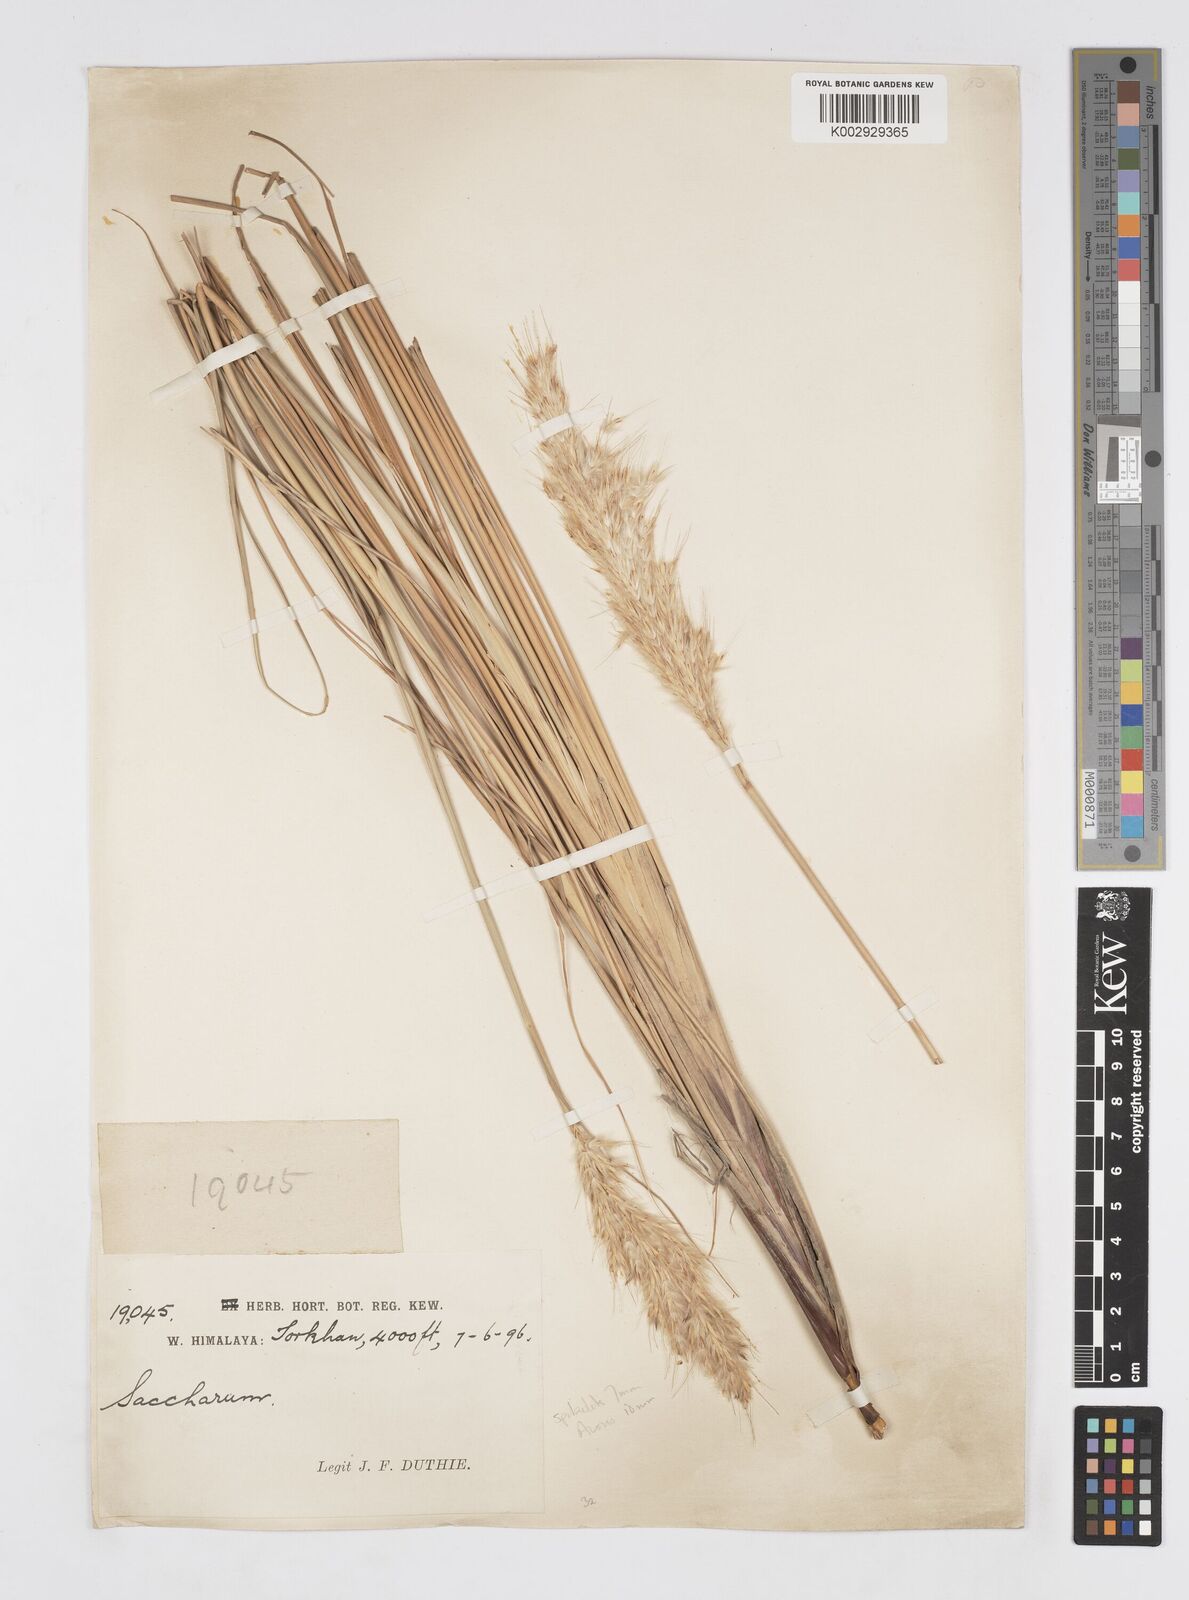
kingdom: Plantae
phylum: Tracheophyta
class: Liliopsida
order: Poales
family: Poaceae
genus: Saccharum
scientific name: Saccharum filifolium
